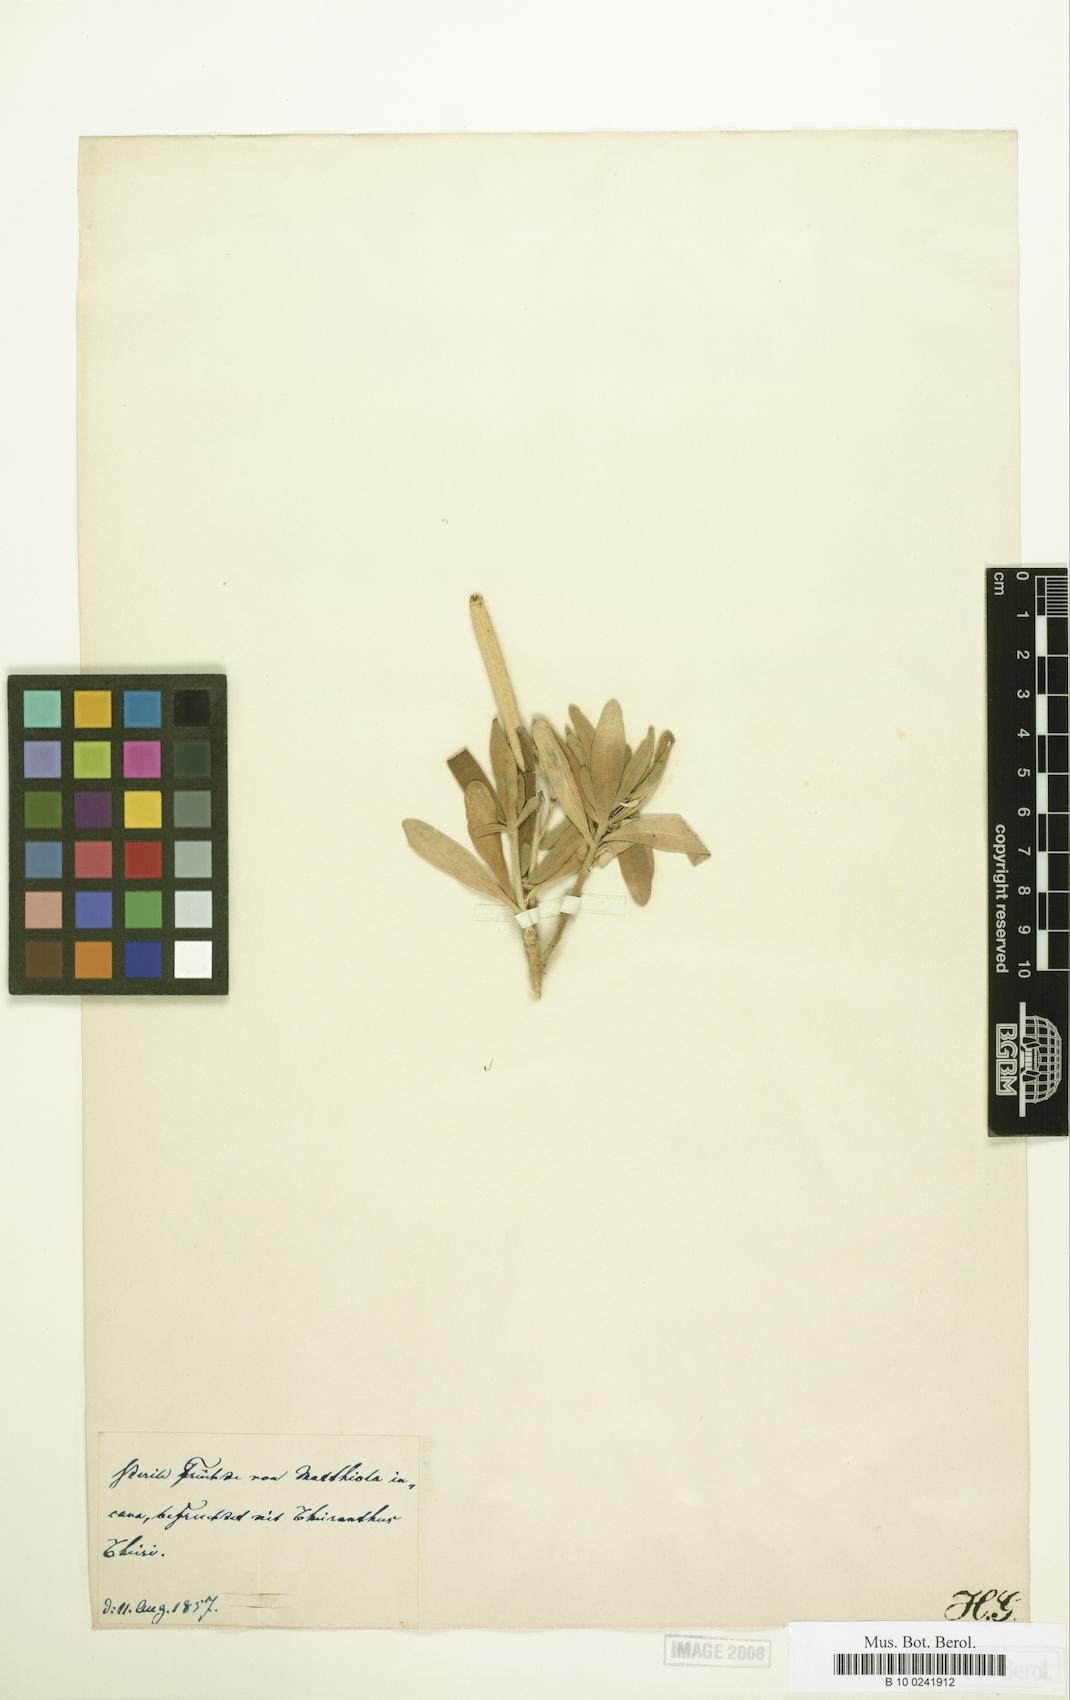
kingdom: Plantae
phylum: Tracheophyta
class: Magnoliopsida
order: Brassicales
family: Brassicaceae
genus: Matthiola
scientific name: Matthiola
